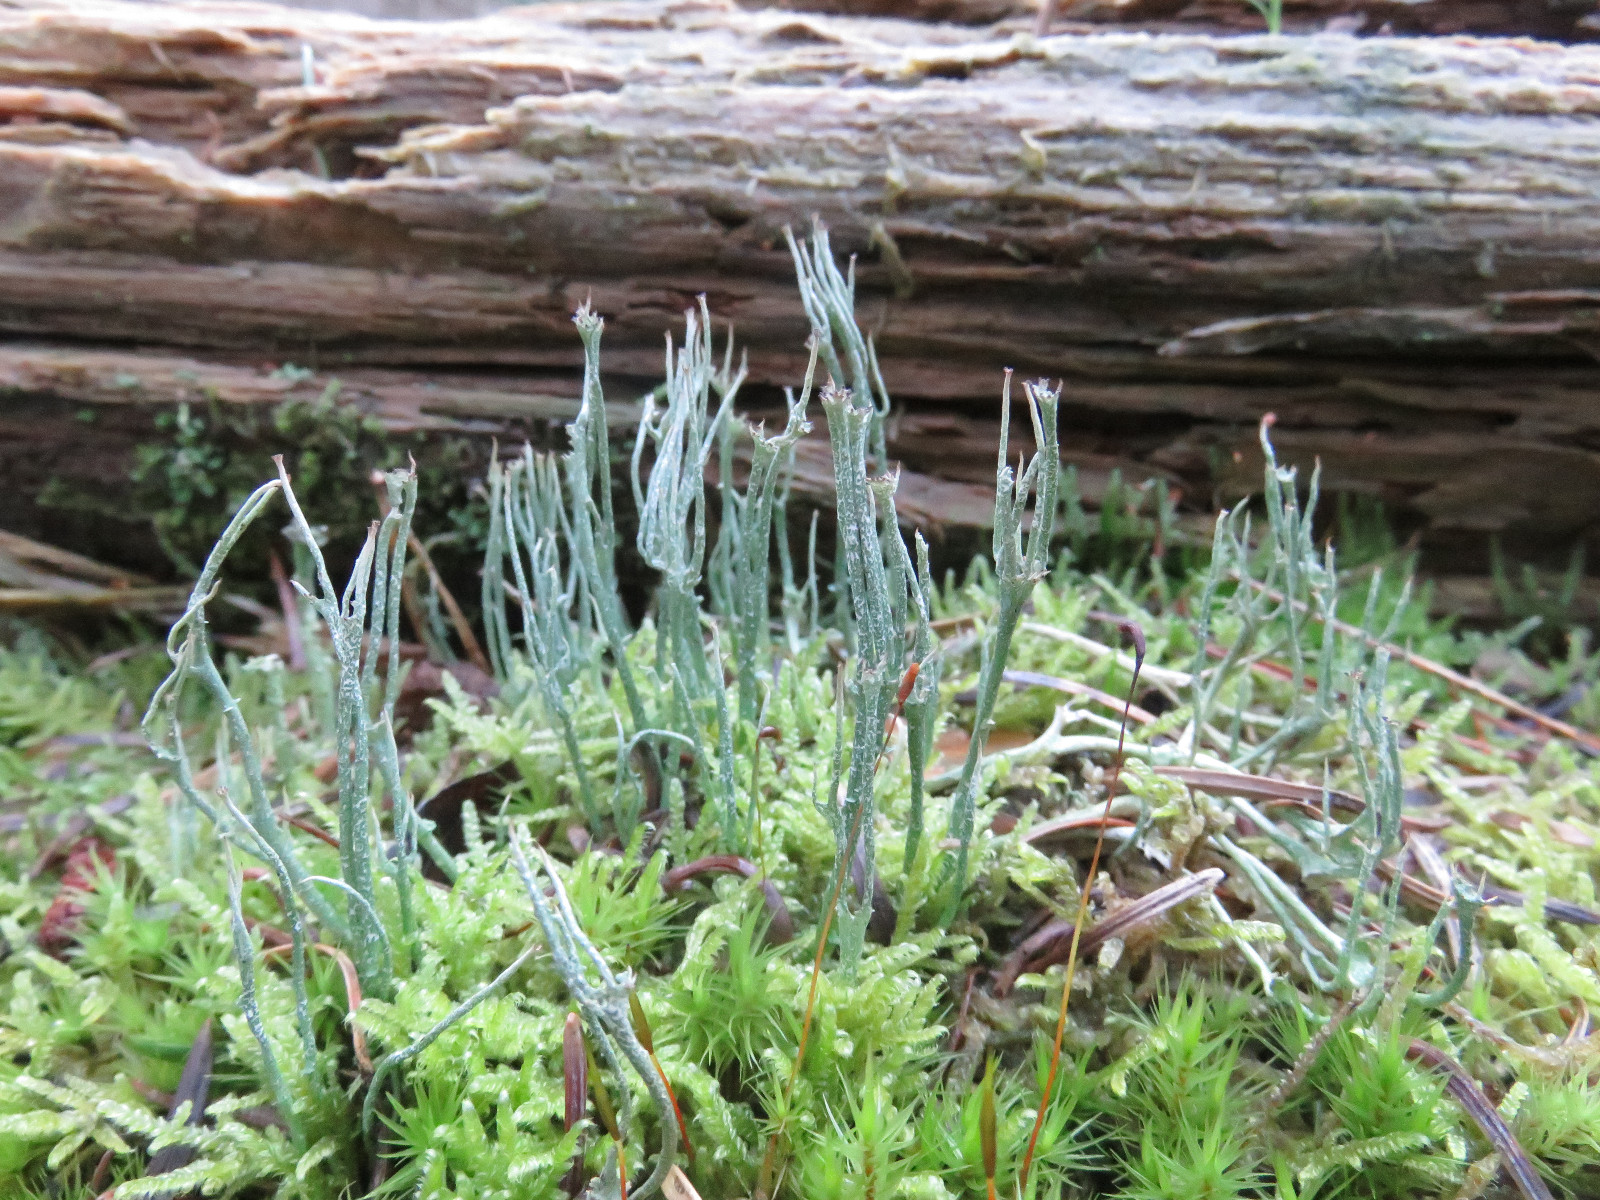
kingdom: Fungi
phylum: Ascomycota
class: Lecanoromycetes
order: Lecanorales
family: Cladoniaceae
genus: Cladonia
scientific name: Cladonia gracilis
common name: slank bægerlav
